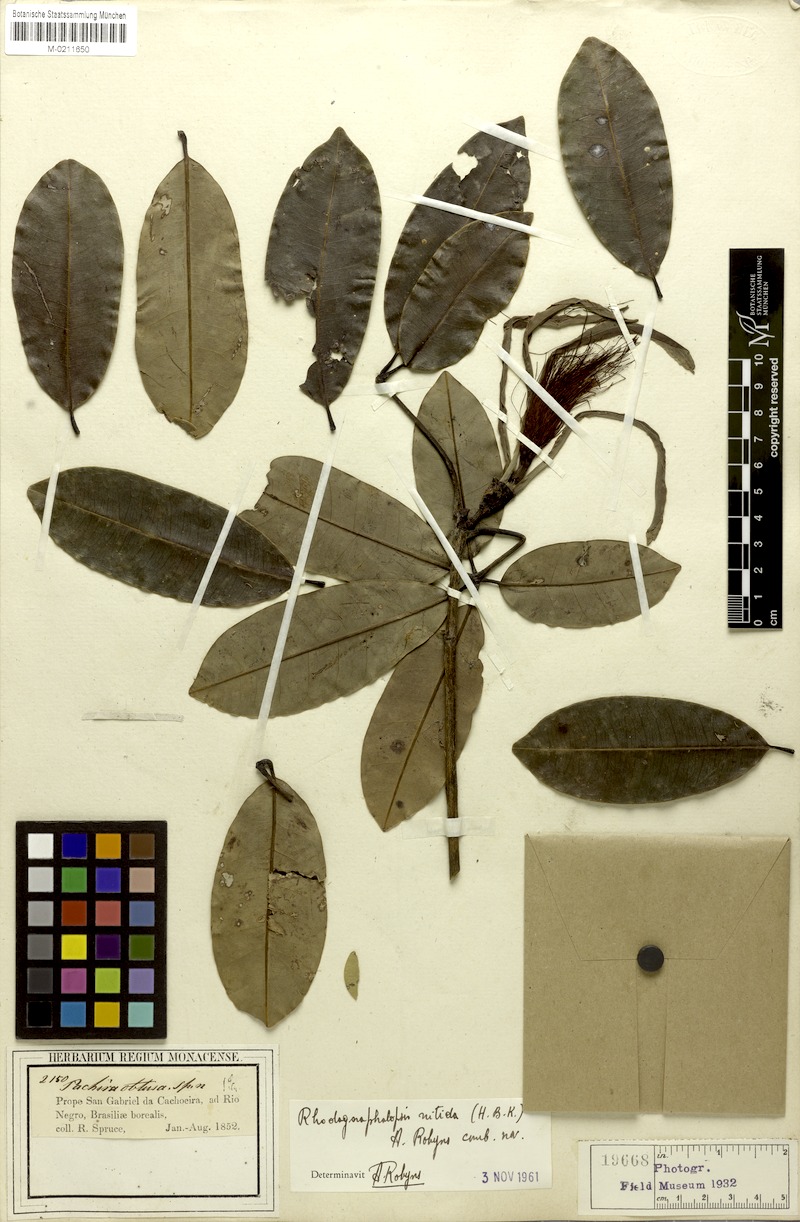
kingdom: Plantae
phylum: Tracheophyta
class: Magnoliopsida
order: Malvales
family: Malvaceae
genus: Pachira
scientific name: Pachira nitida
